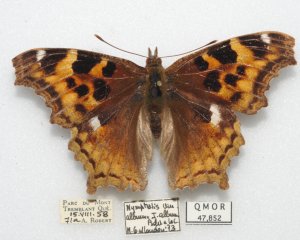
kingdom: Animalia
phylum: Arthropoda
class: Insecta
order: Lepidoptera
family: Nymphalidae
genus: Polygonia
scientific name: Polygonia vaualbum
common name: Compton Tortoiseshell
